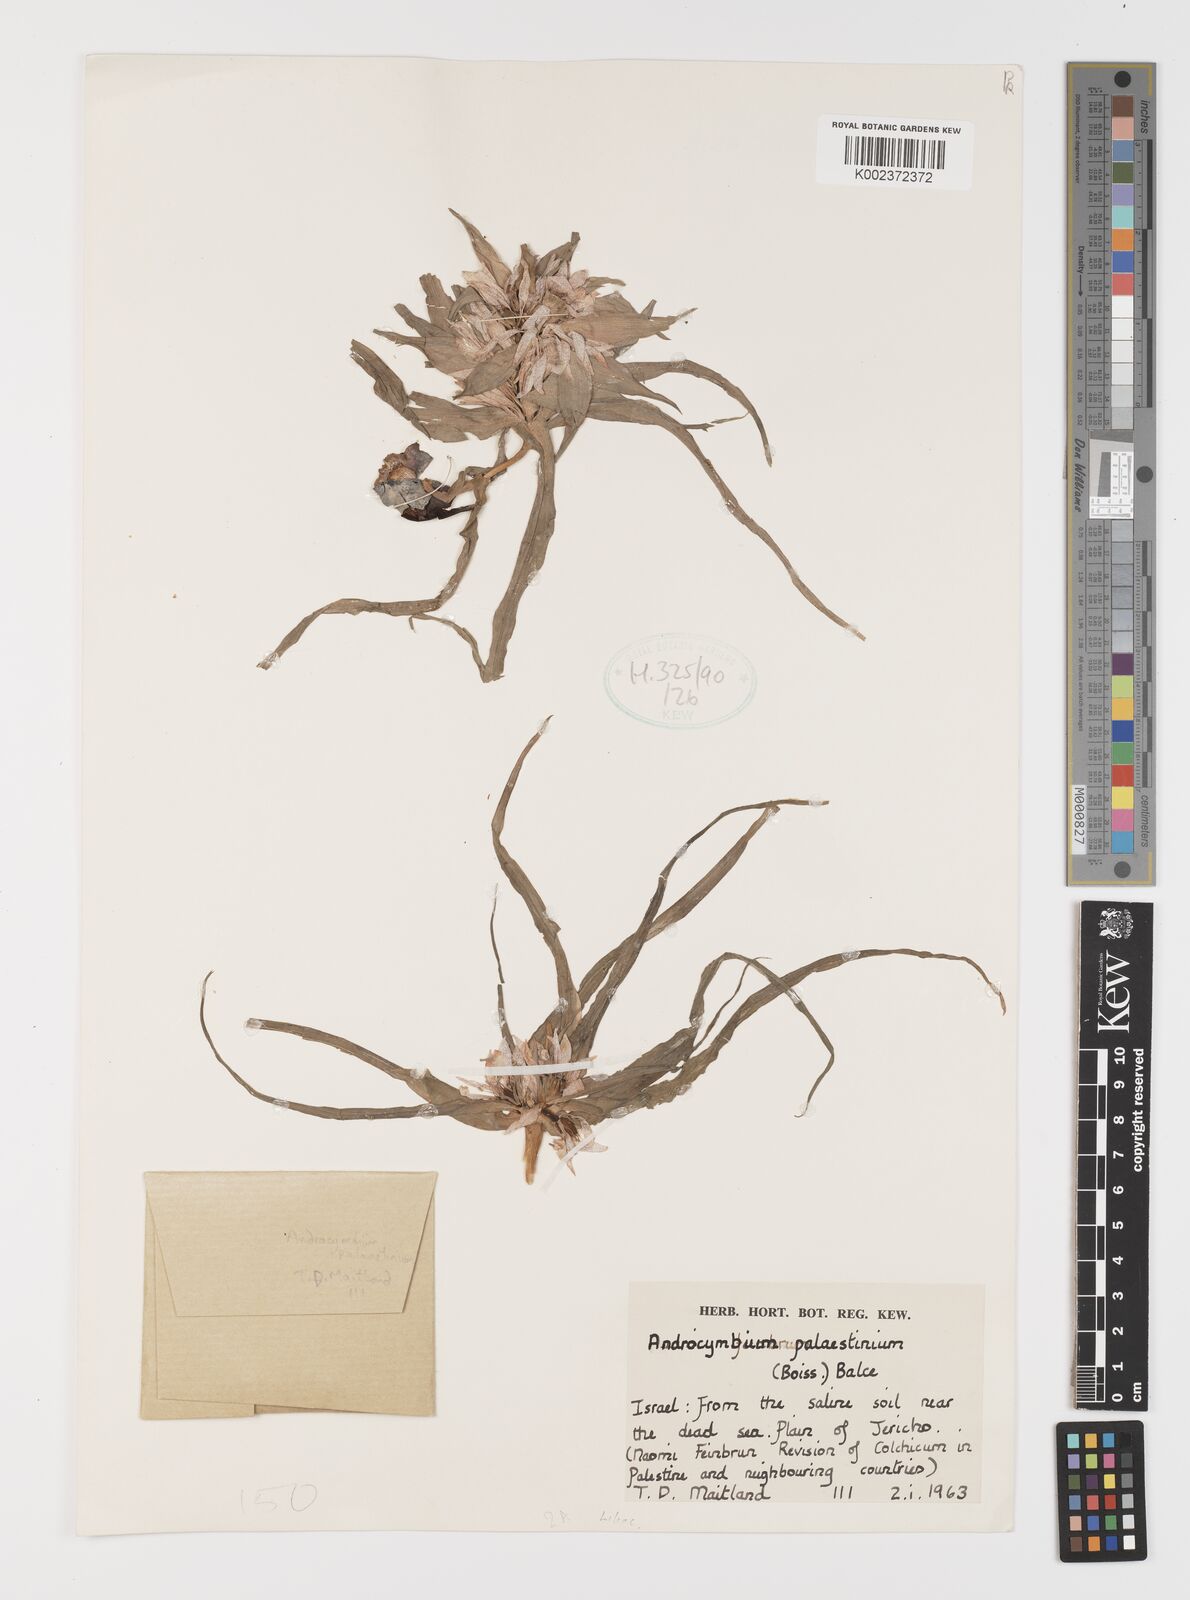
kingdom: Plantae
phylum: Tracheophyta
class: Liliopsida
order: Liliales
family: Colchicaceae
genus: Colchicum
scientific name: Colchicum palaestinum
